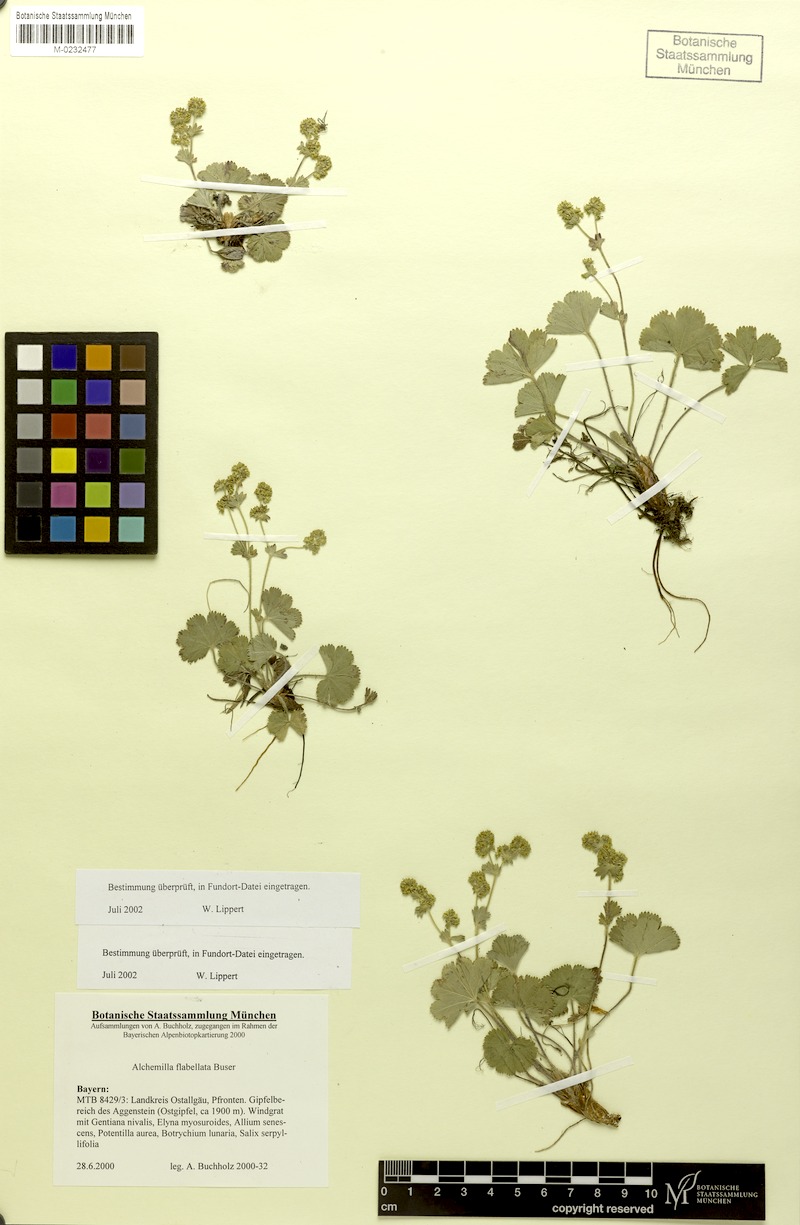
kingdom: Plantae
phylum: Tracheophyta
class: Magnoliopsida
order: Rosales
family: Rosaceae
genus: Alchemilla
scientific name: Alchemilla flabellata
